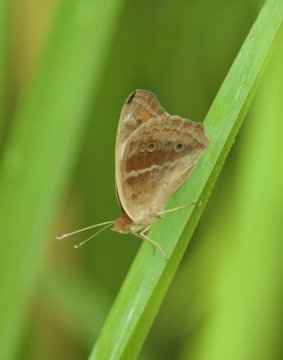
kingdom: Animalia
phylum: Arthropoda
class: Insecta
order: Lepidoptera
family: Nymphalidae
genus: Junonia
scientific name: Junonia evarete
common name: Mangrove Buckeye
